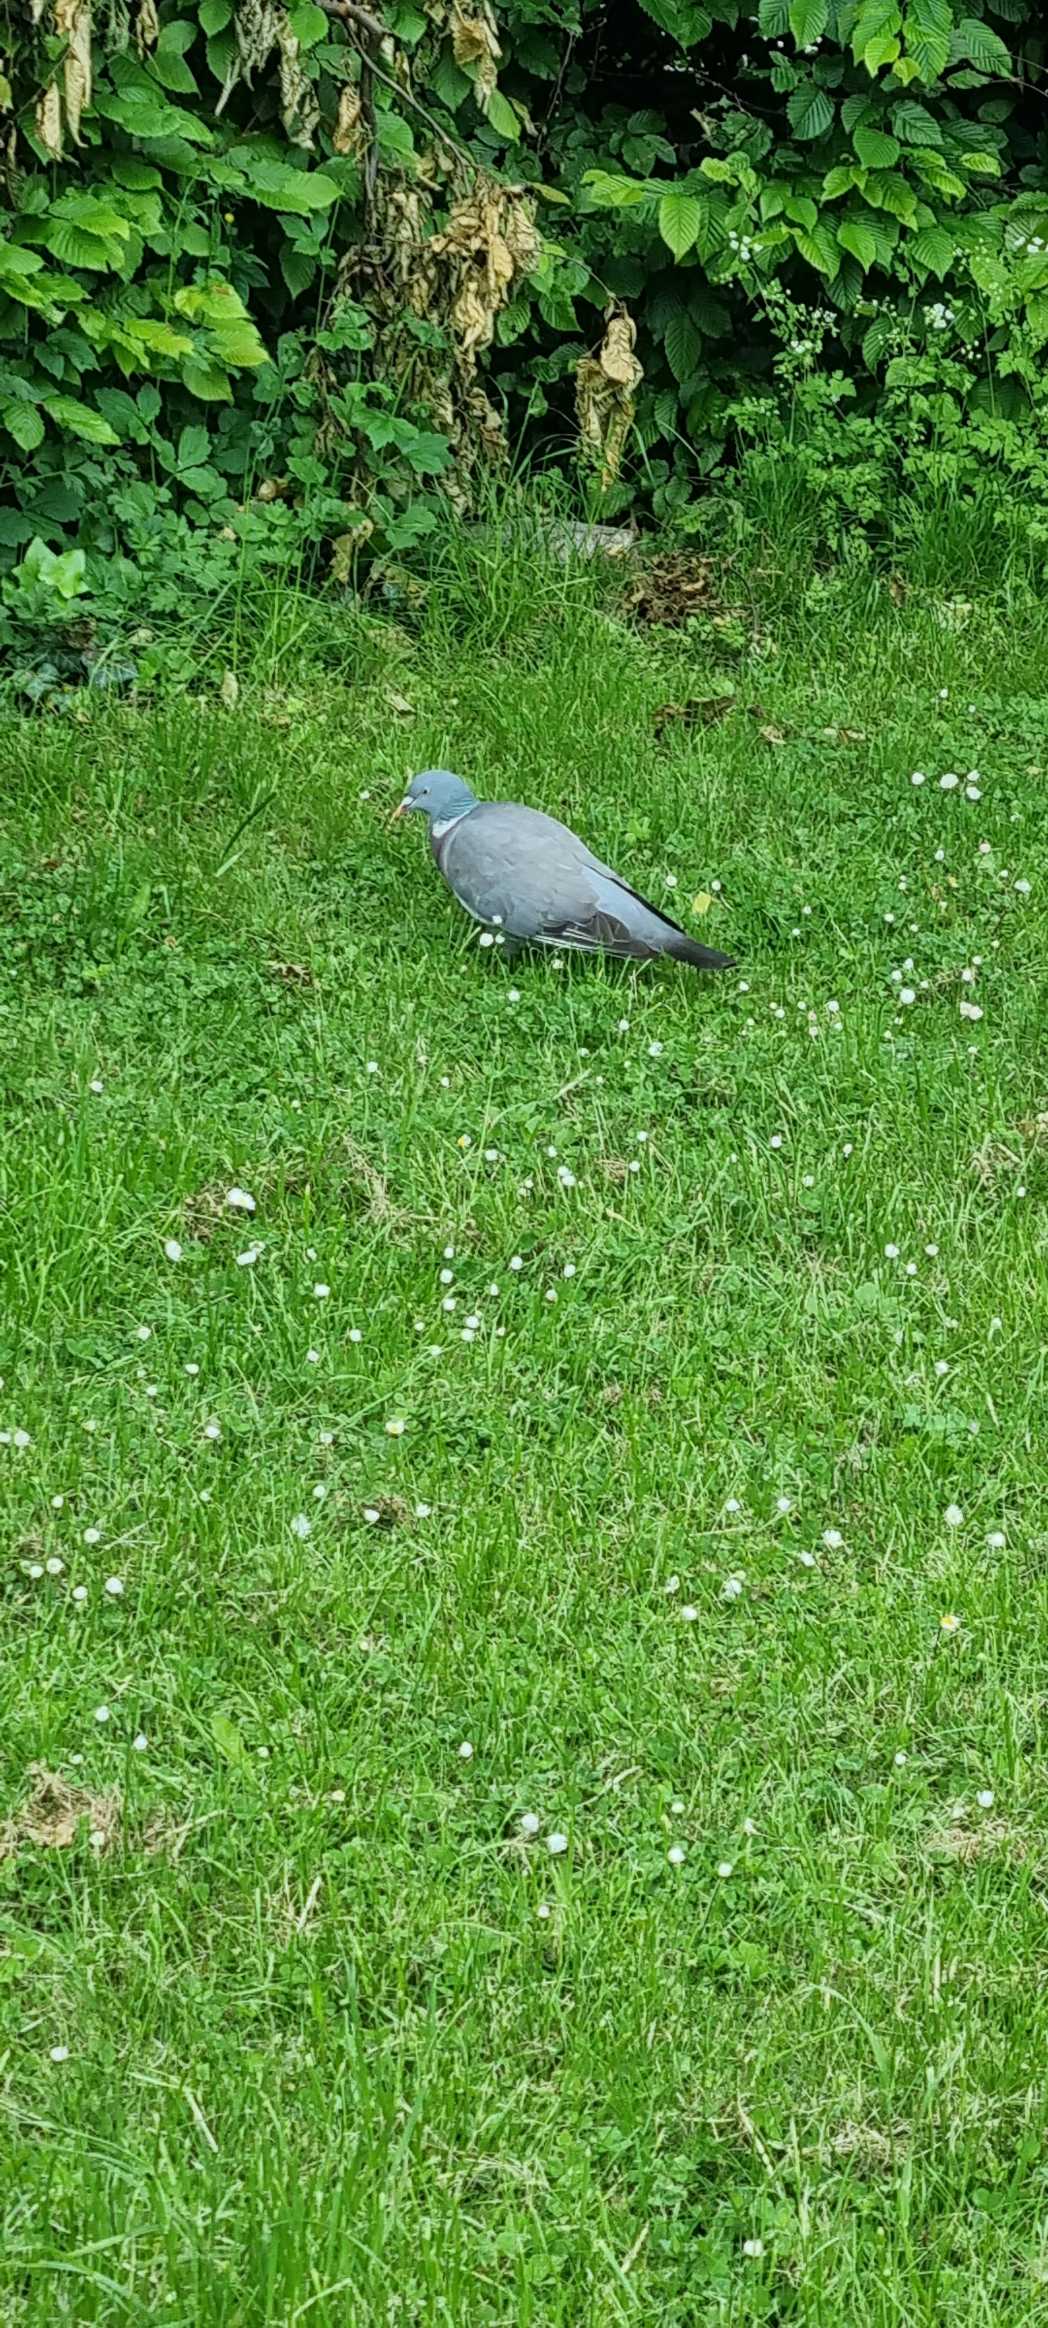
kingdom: Animalia
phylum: Chordata
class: Aves
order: Columbiformes
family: Columbidae
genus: Columba
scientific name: Columba palumbus
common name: Ringdue
